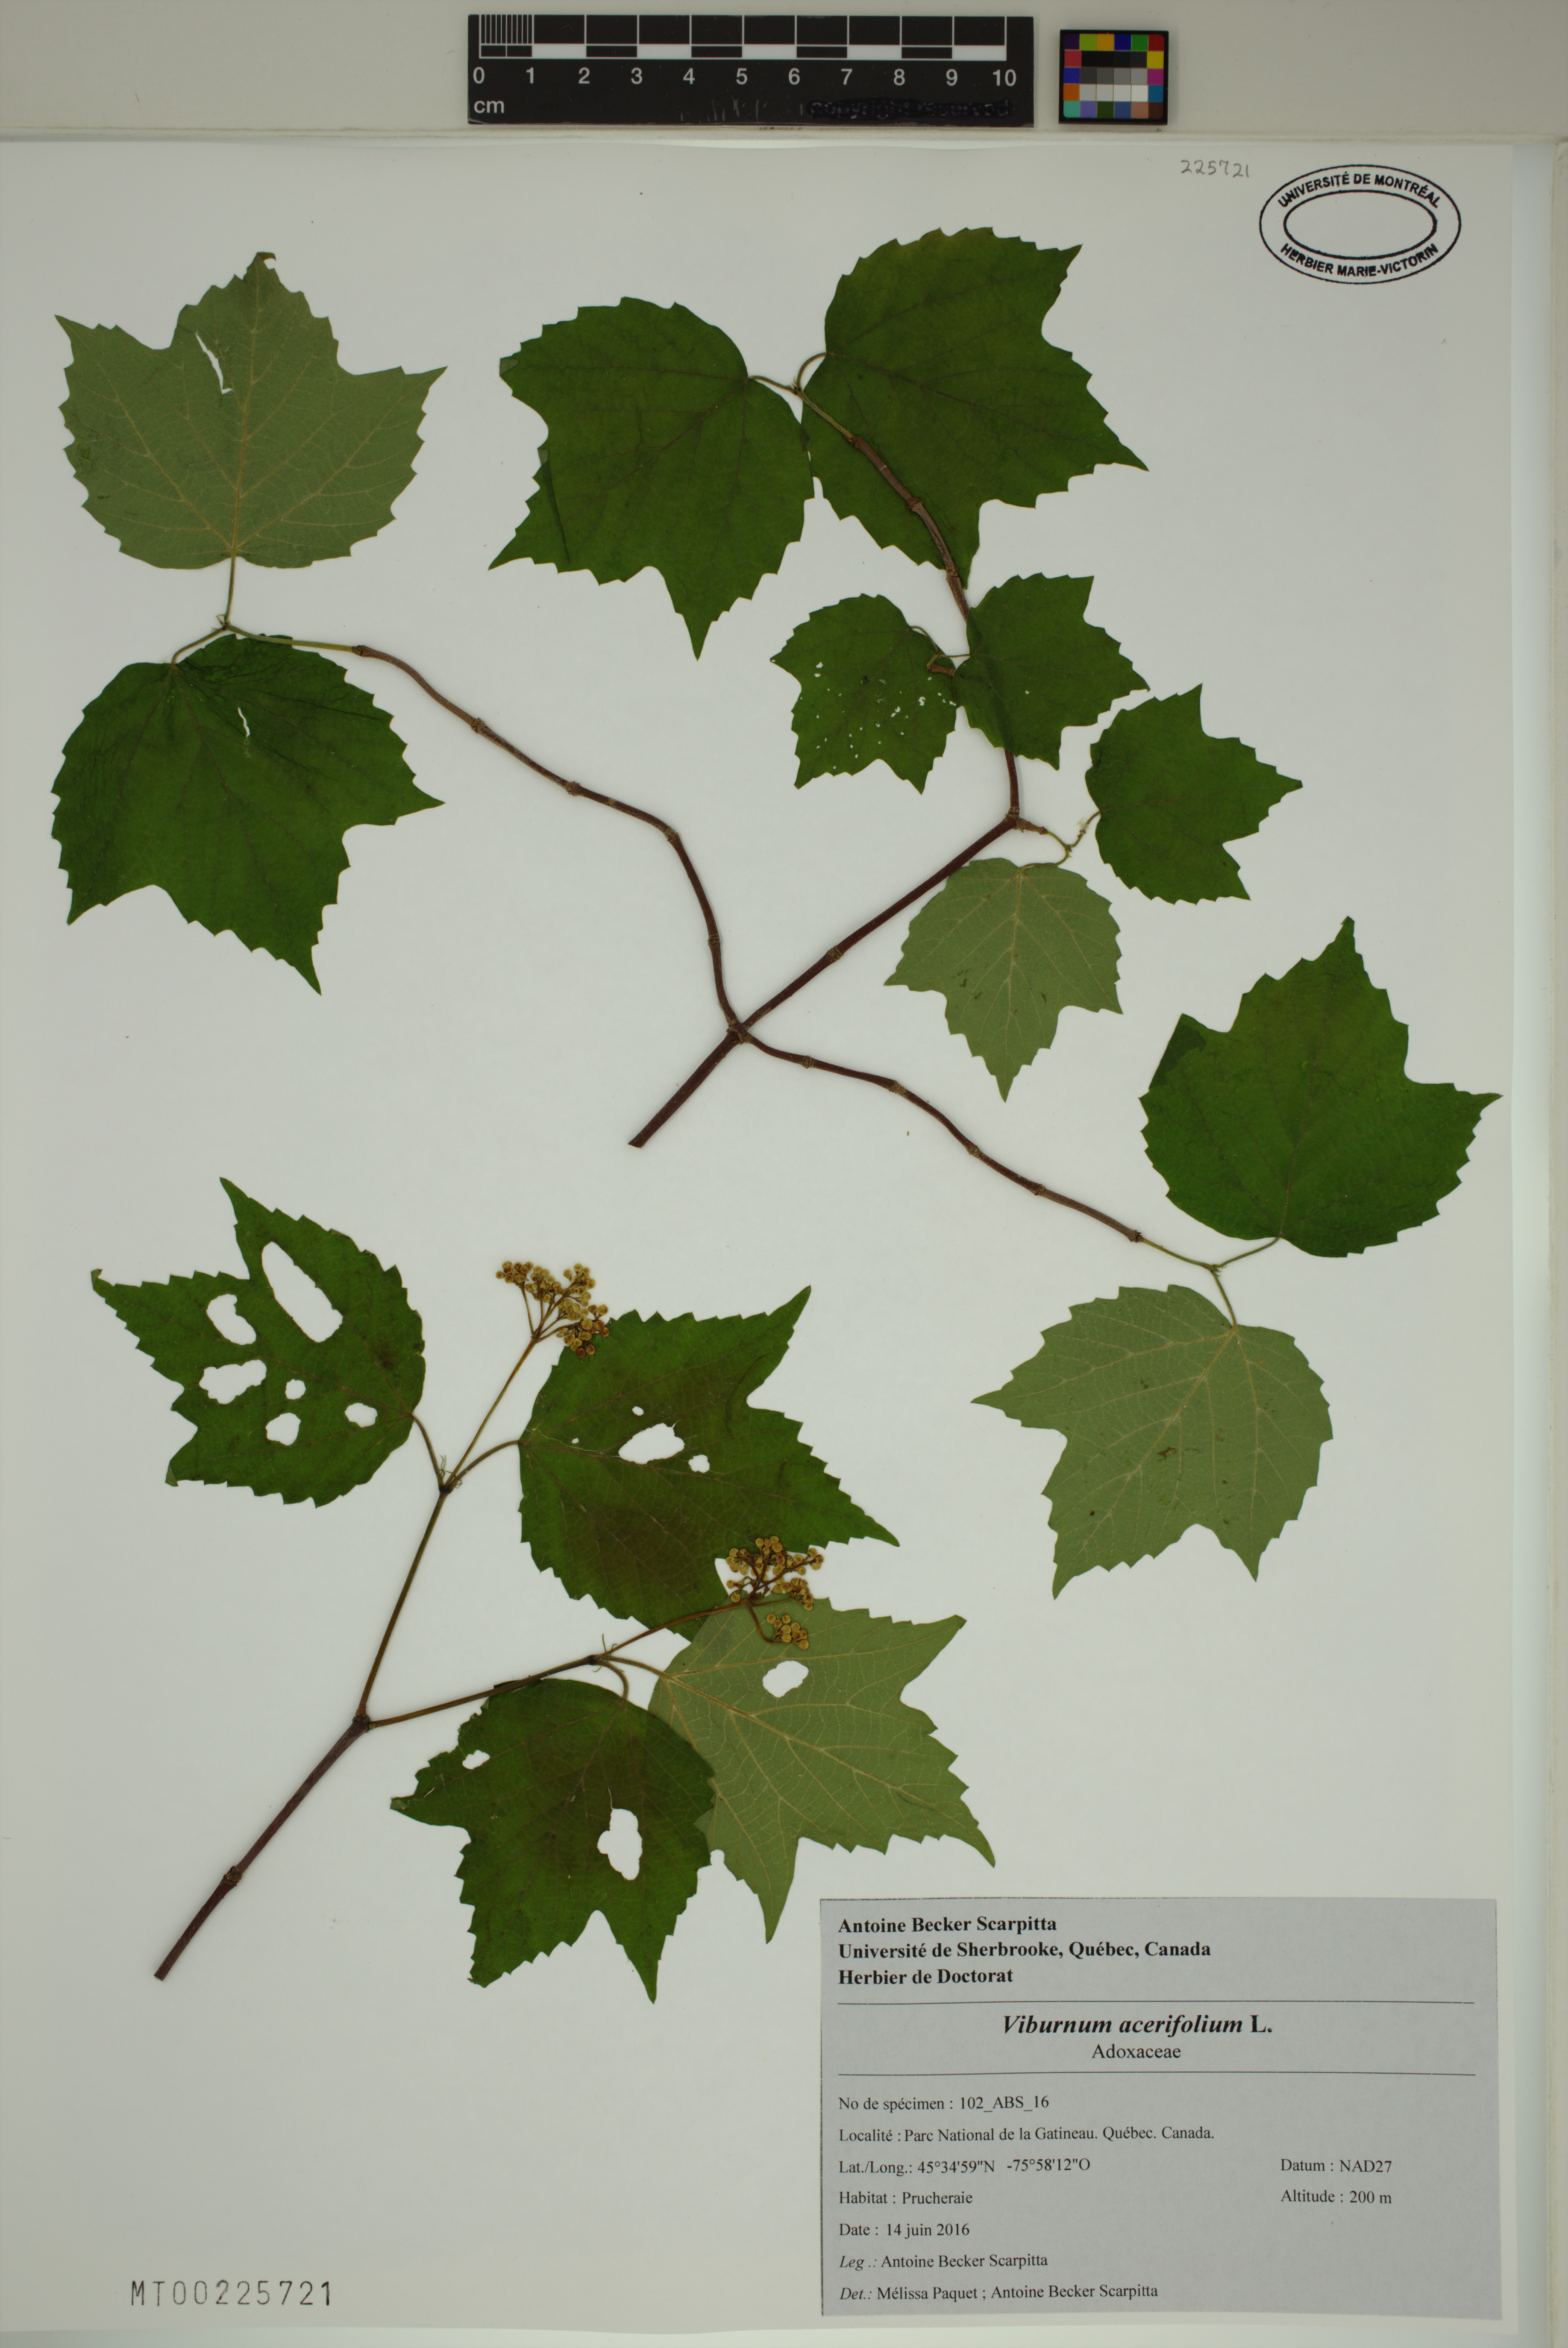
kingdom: Plantae
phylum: Tracheophyta
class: Magnoliopsida
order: Dipsacales
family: Viburnaceae
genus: Viburnum
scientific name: Viburnum acerifolium
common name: Dockmackie
